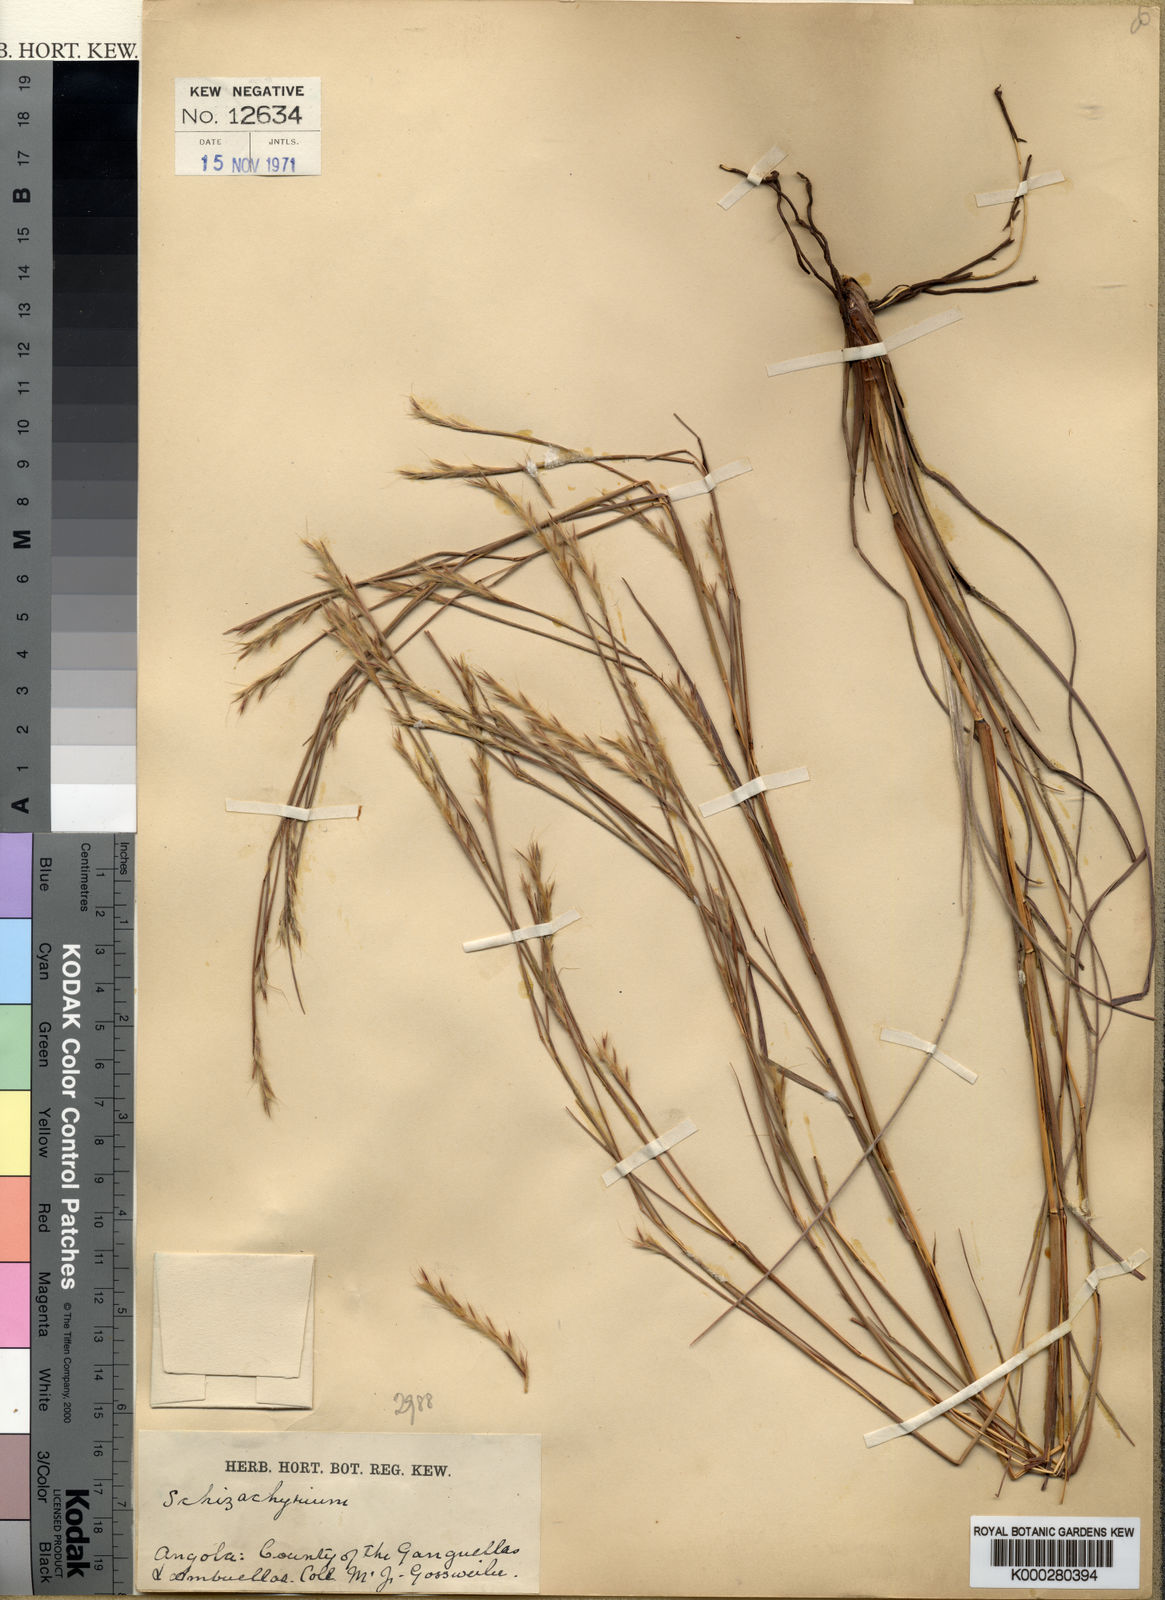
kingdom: Plantae
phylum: Tracheophyta
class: Liliopsida
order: Poales
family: Poaceae
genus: Schizachyrium
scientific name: Schizachyrium jeffreysii
